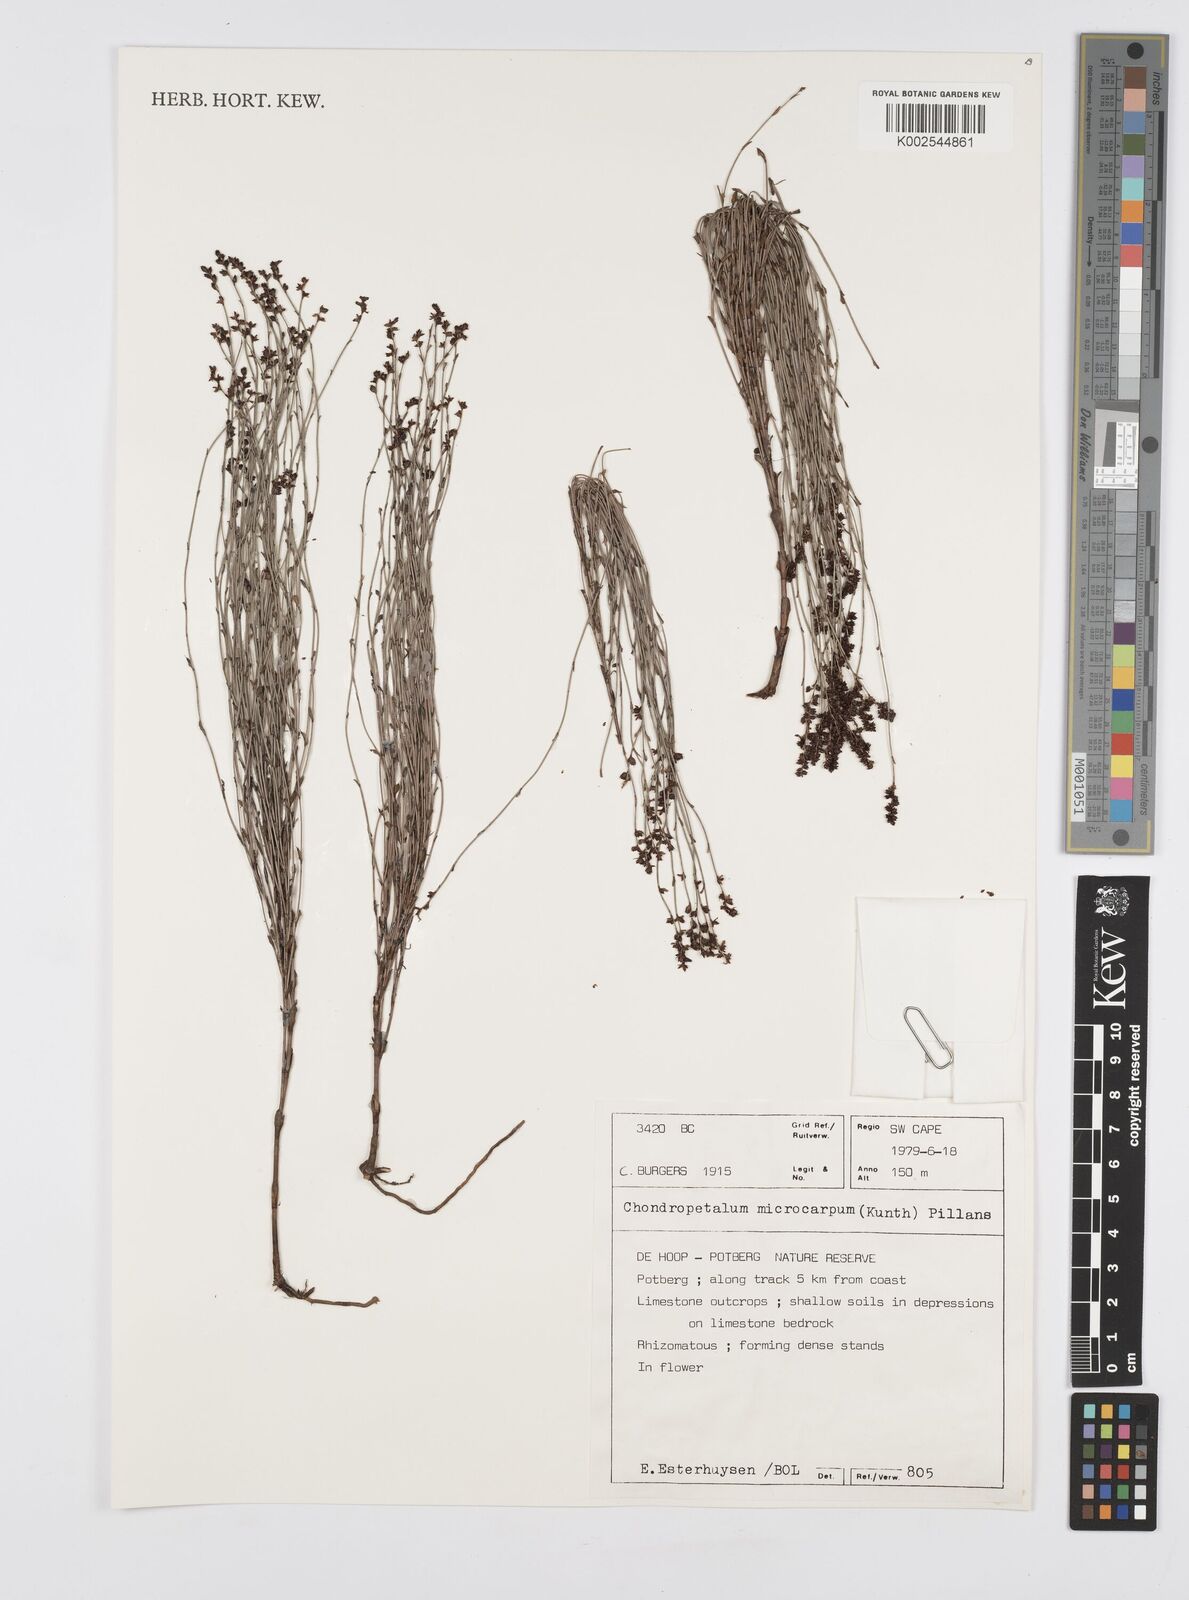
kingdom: Plantae
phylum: Tracheophyta
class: Liliopsida
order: Poales
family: Restionaceae
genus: Elegia
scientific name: Elegia microcarpa
